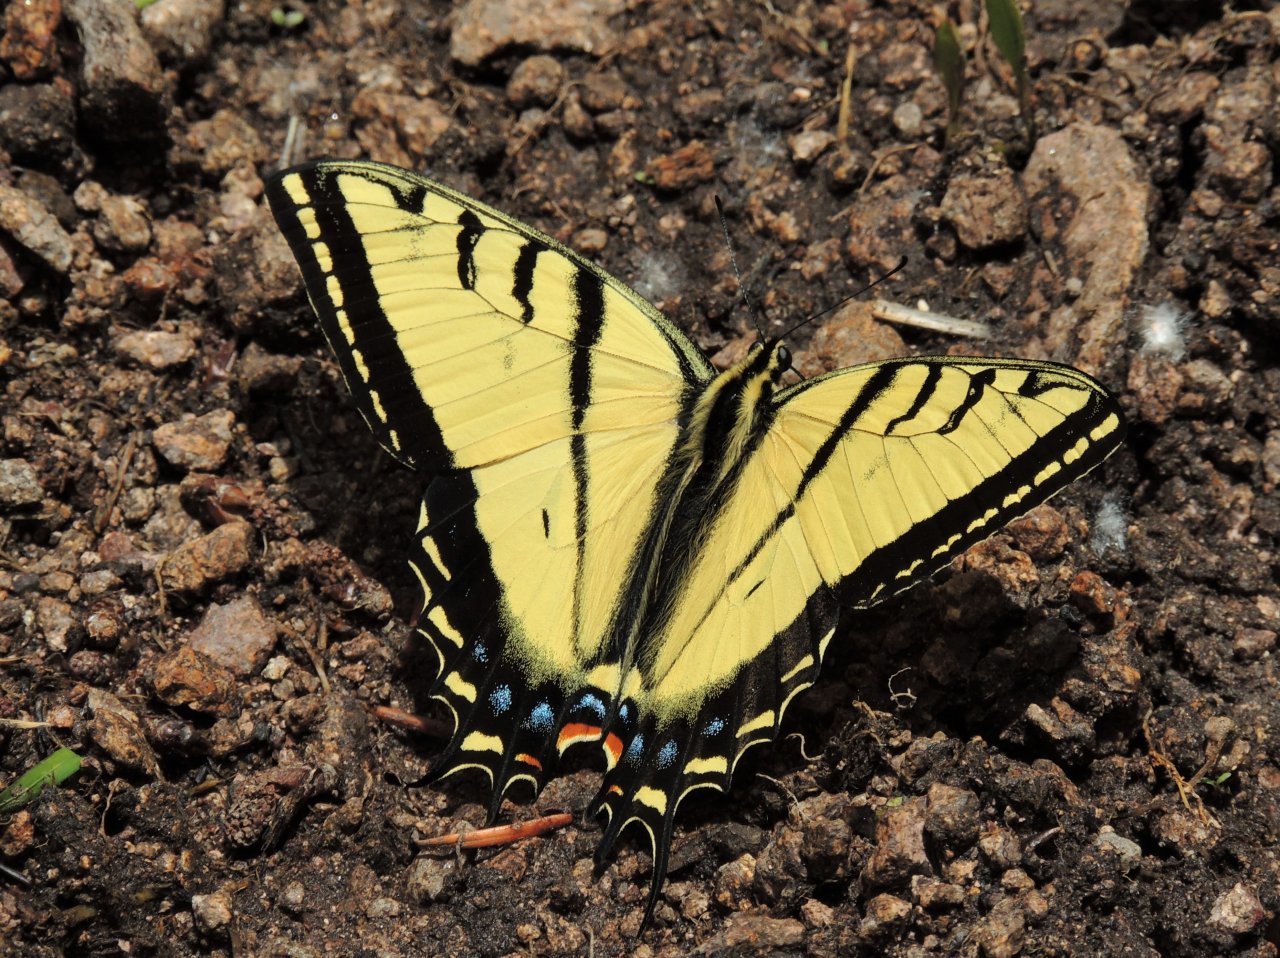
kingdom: Animalia
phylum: Arthropoda
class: Insecta
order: Lepidoptera
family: Papilionidae
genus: Papilio
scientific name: Papilio multicaudata
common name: Two-tailed Swallowtail
